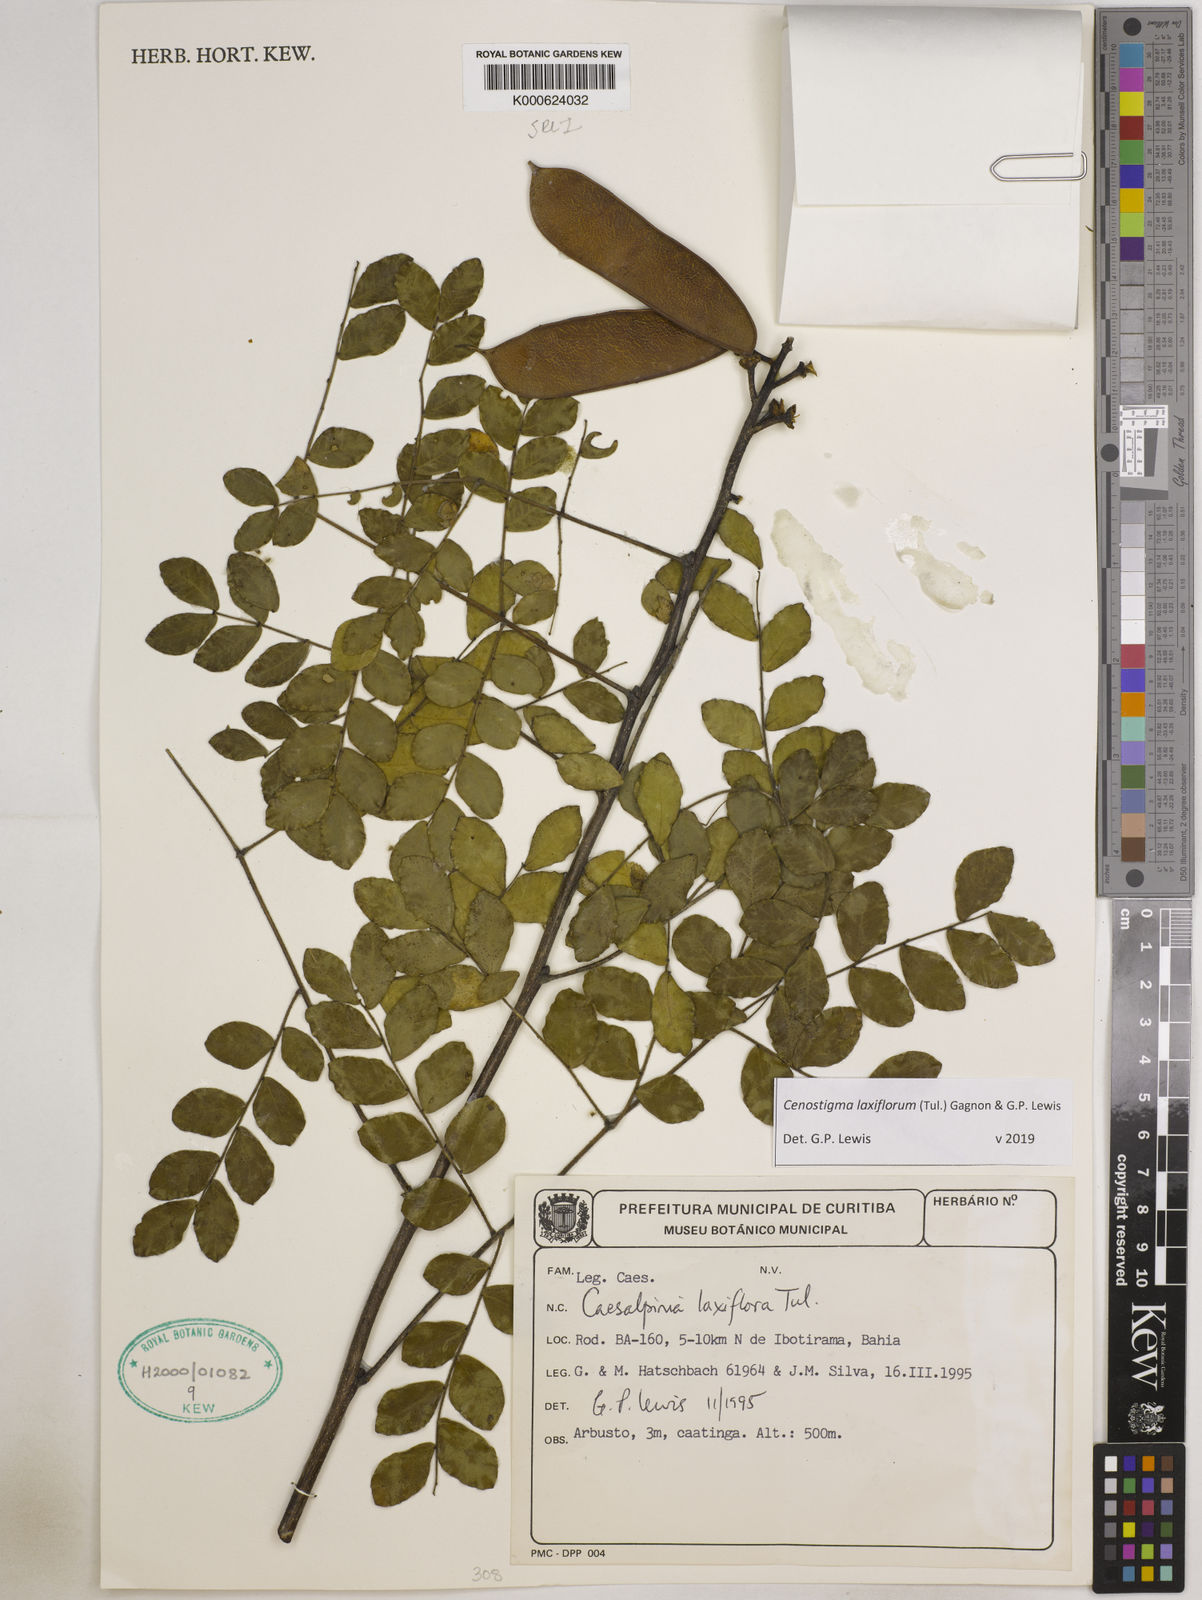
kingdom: Plantae
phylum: Tracheophyta
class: Magnoliopsida
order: Fabales
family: Fabaceae
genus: Cenostigma
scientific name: Cenostigma laxiflorum
